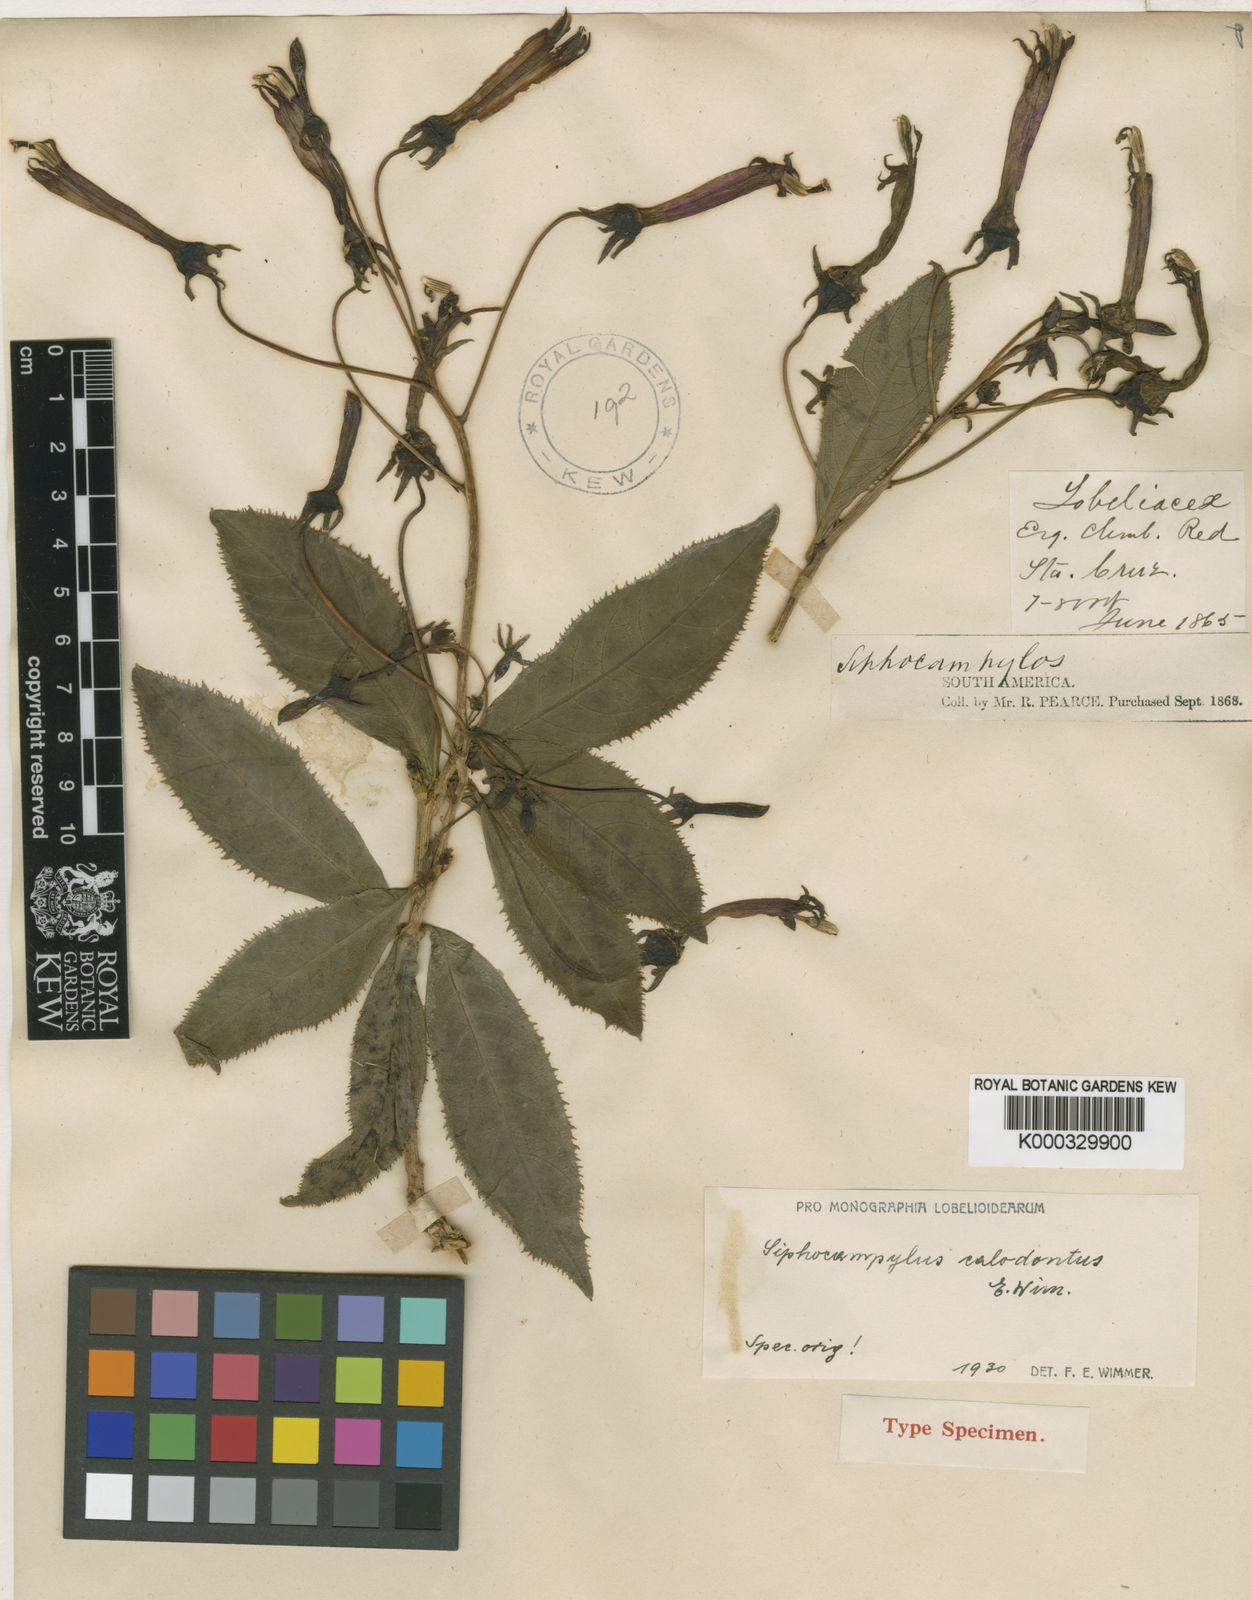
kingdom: Plantae
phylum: Tracheophyta
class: Magnoliopsida
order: Asterales
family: Campanulaceae
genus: Siphocampylus
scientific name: Siphocampylus calodontus
